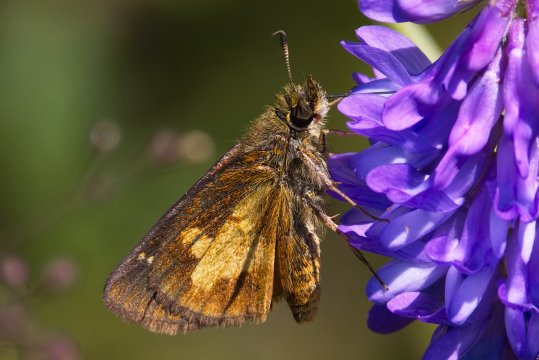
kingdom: Animalia
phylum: Arthropoda
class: Insecta
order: Lepidoptera
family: Hesperiidae
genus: Poanes
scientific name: Poanes massasoit
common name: Mulberry Wing
